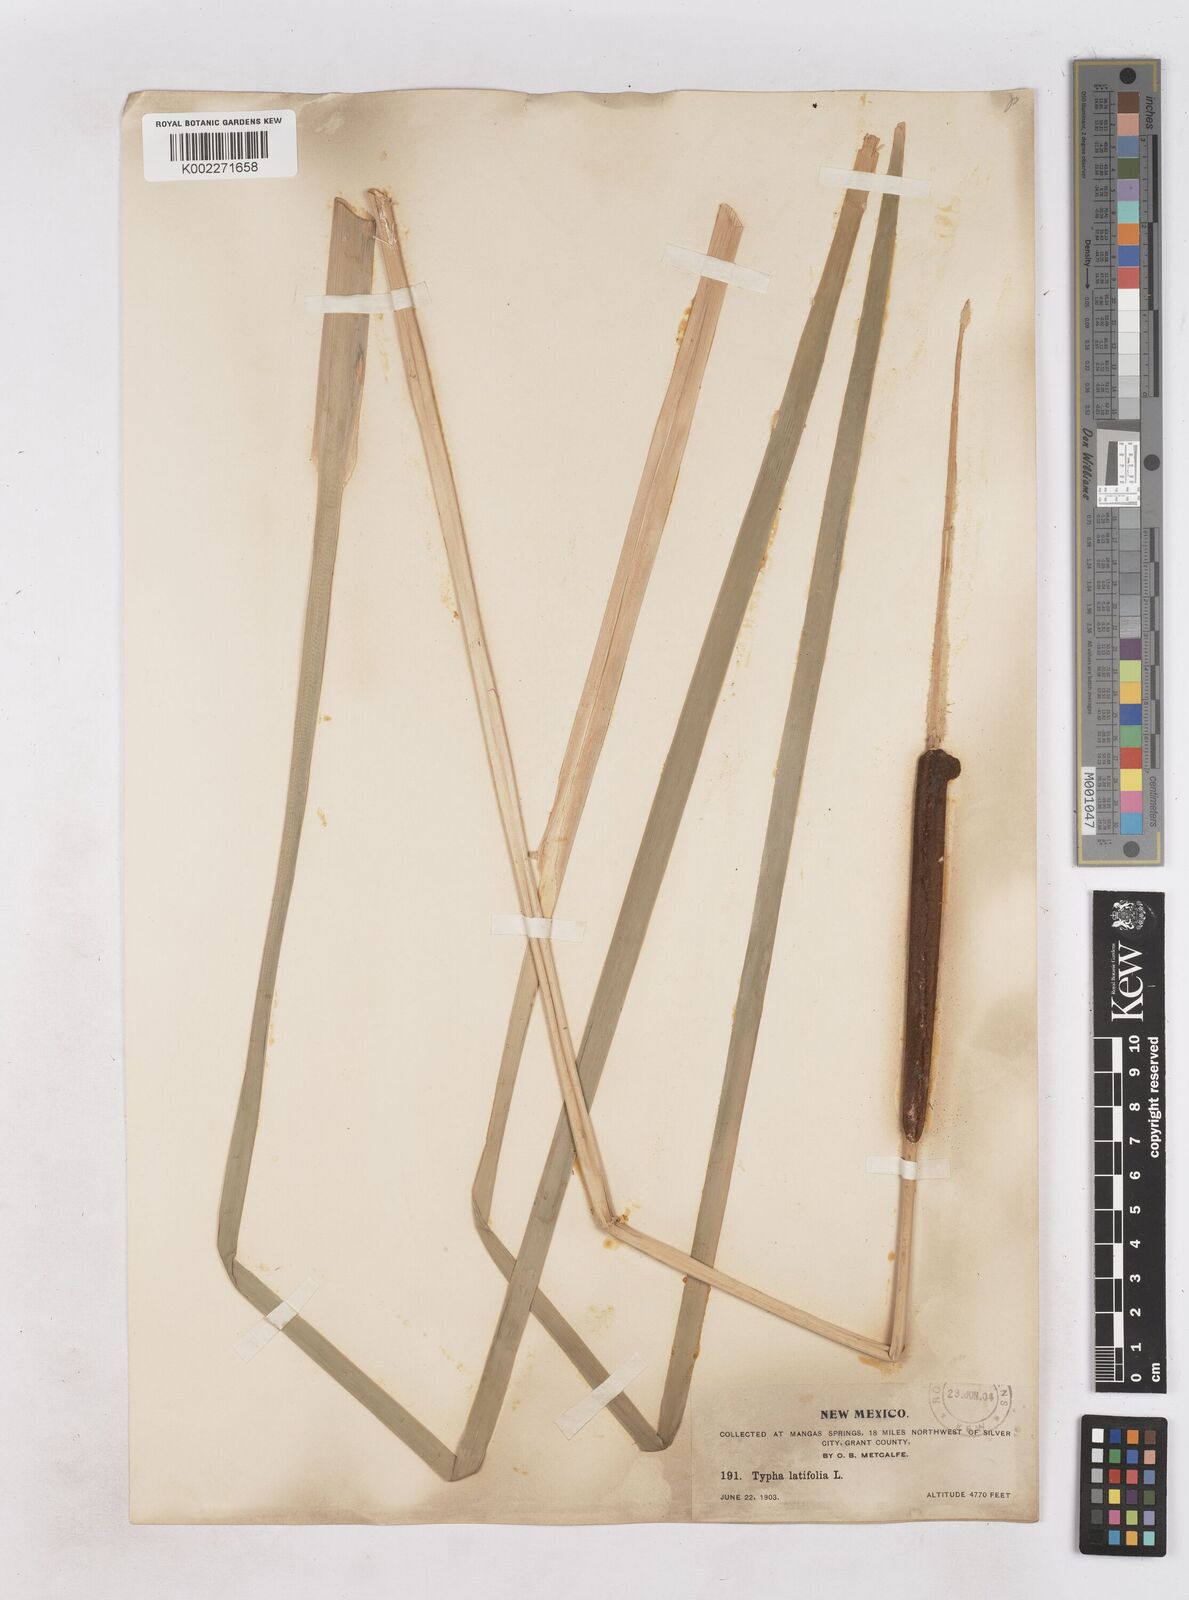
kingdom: Plantae
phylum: Tracheophyta
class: Liliopsida
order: Poales
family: Typhaceae
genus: Typha
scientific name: Typha
